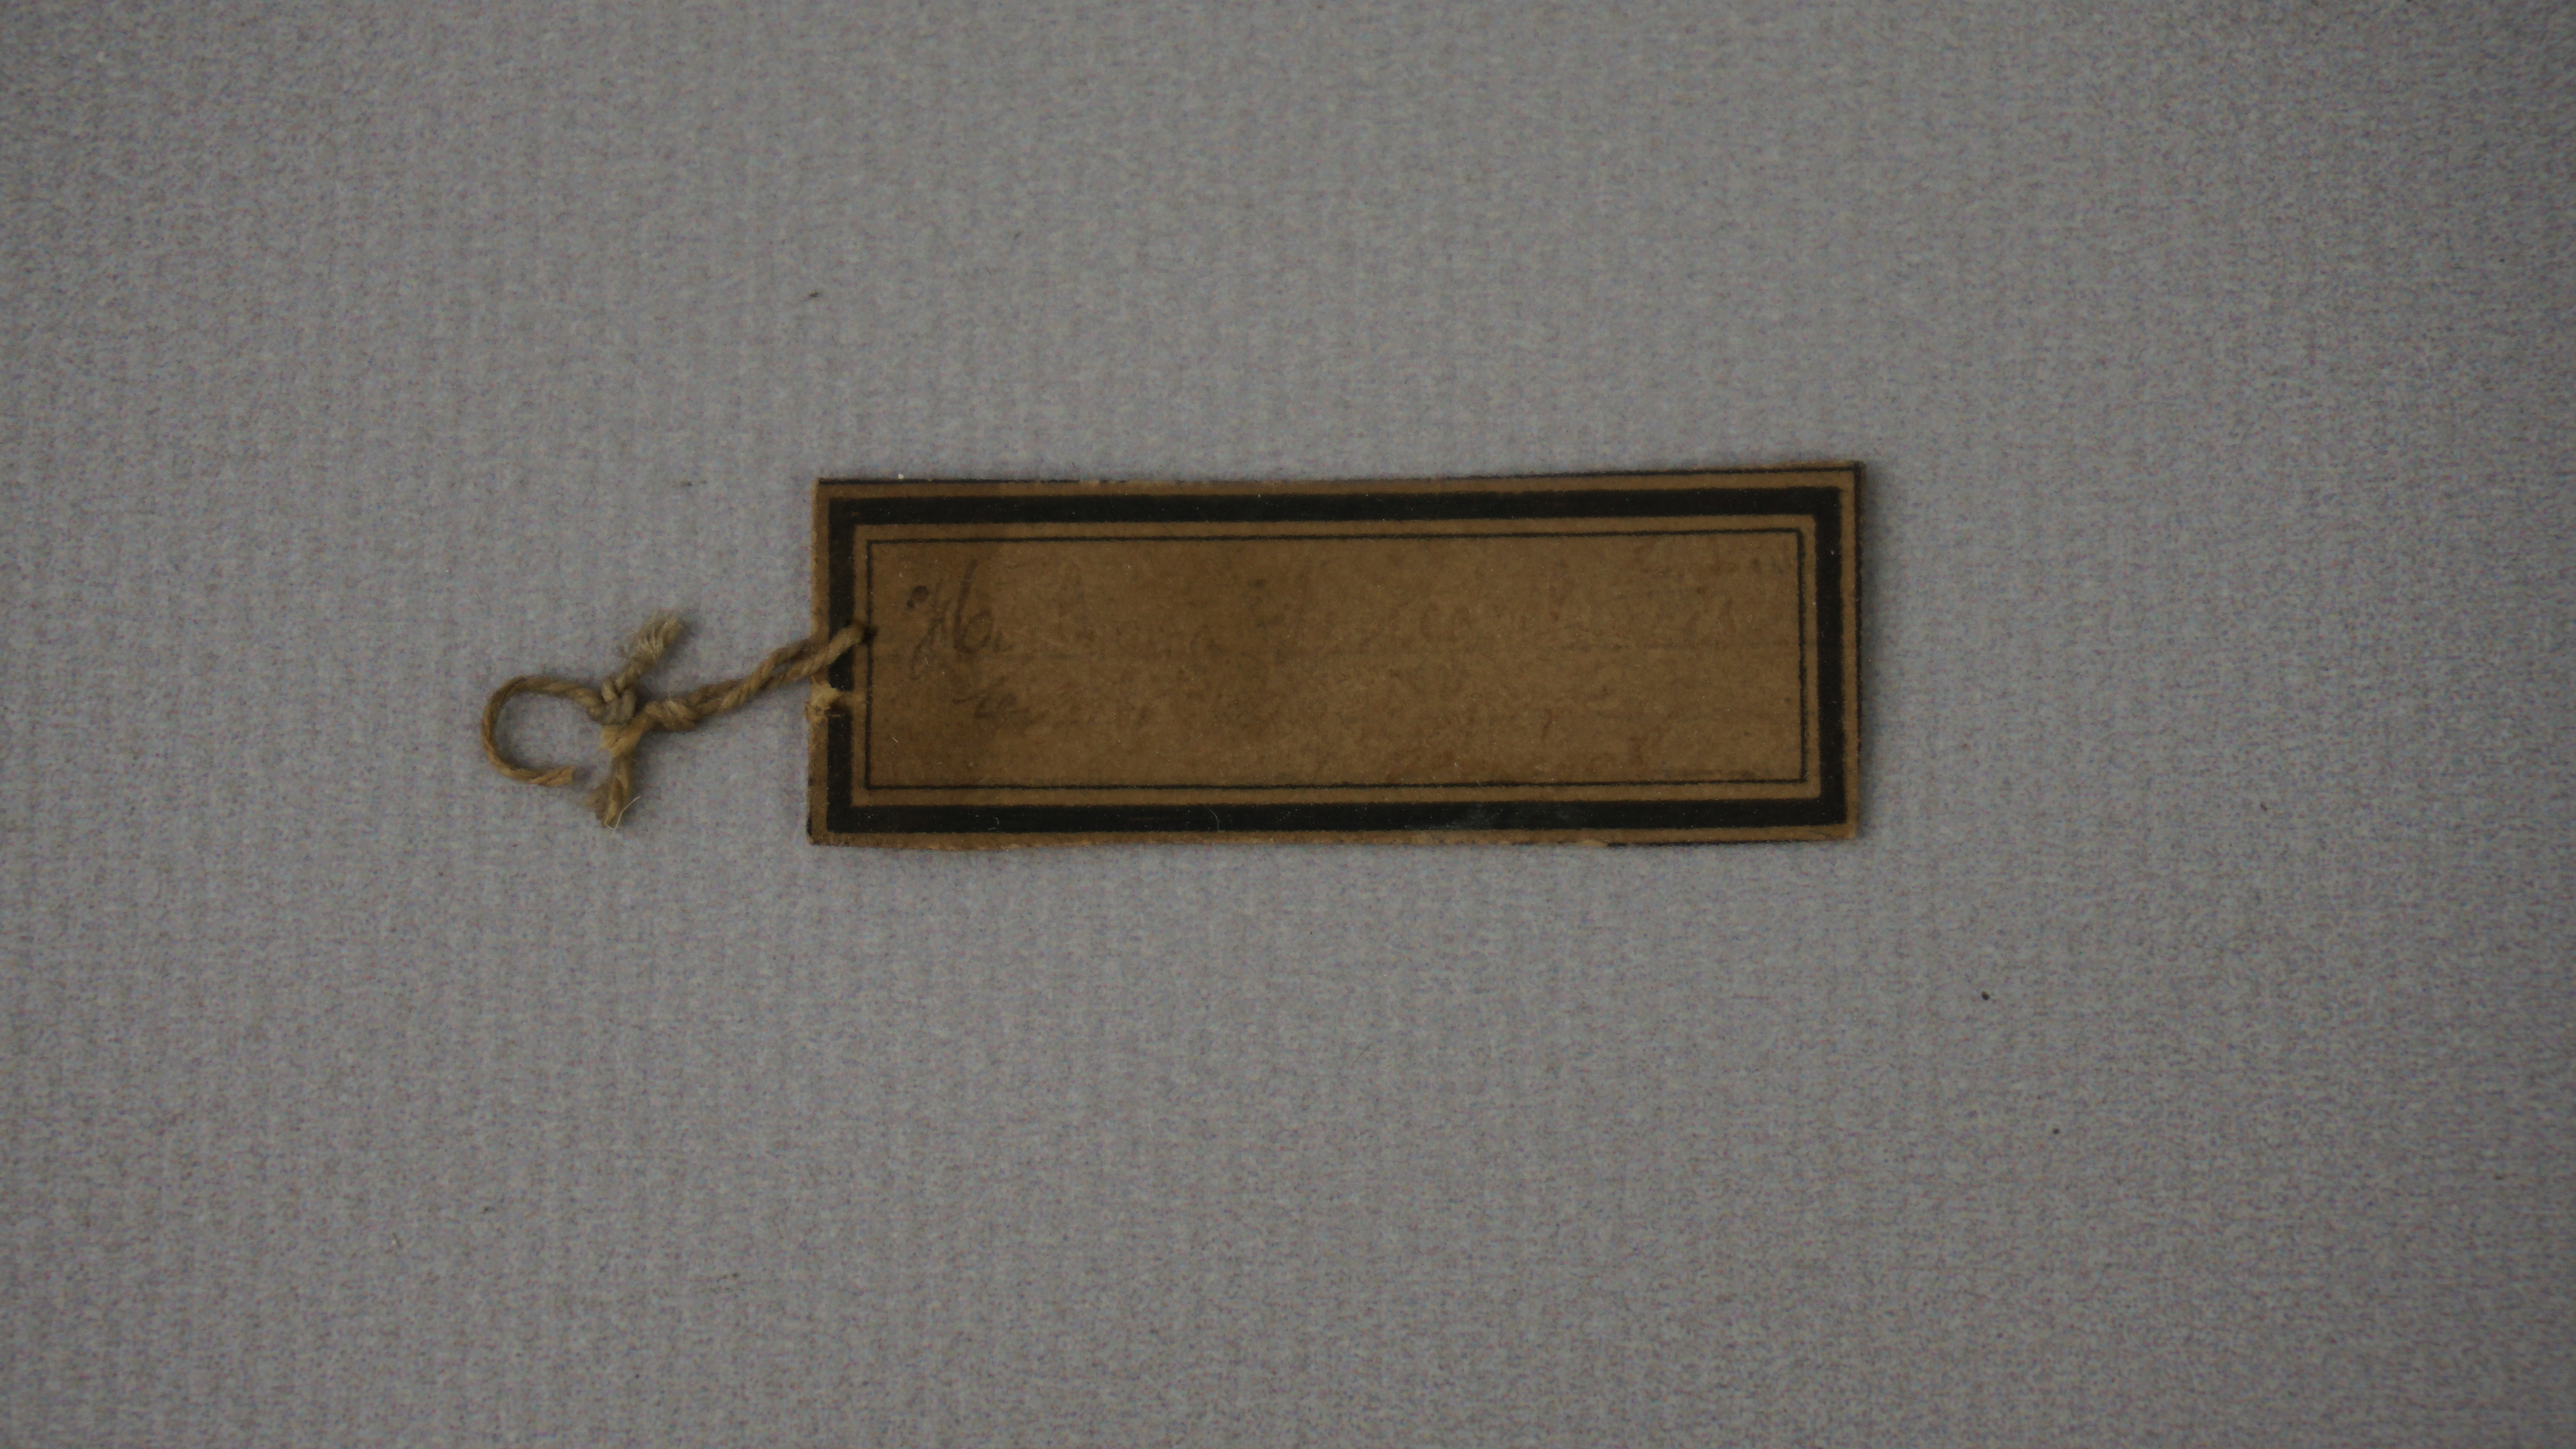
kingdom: Animalia
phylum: Chordata
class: Aves
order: Coraciiformes
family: Alcedinidae
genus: Halcyon
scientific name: Halcyon senegalensis
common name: Woodland kingfisher
